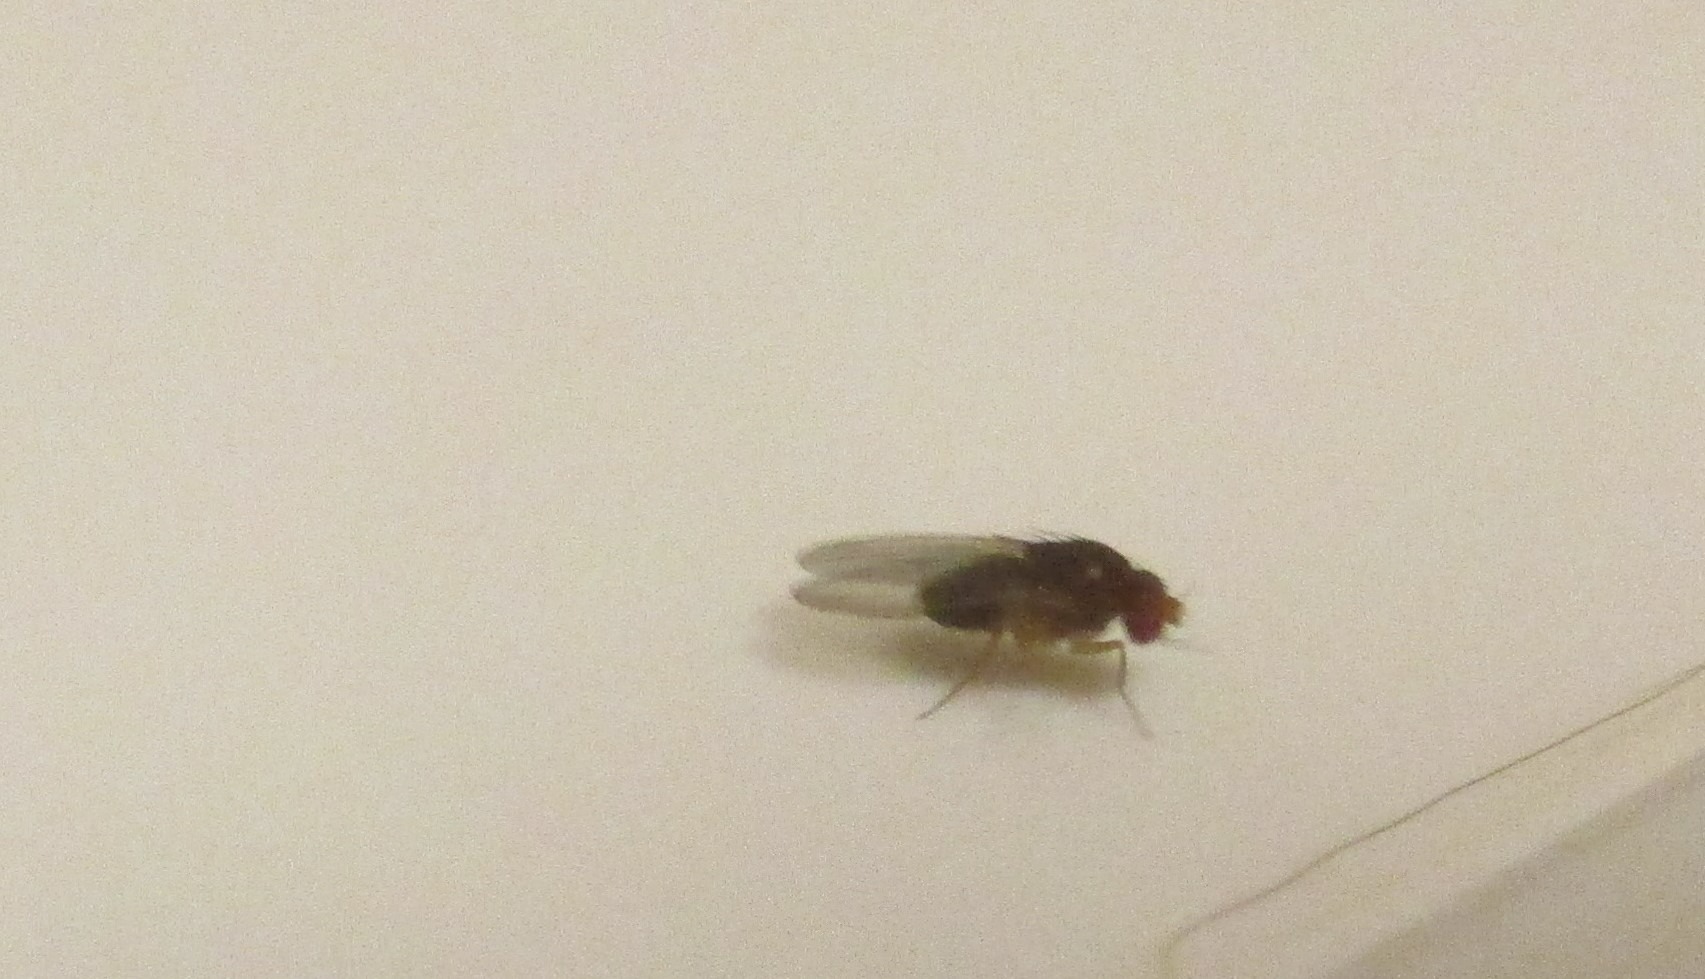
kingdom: Animalia
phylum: Arthropoda
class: Insecta
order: Diptera
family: Drosophilidae
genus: Drosophila
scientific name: Drosophila
